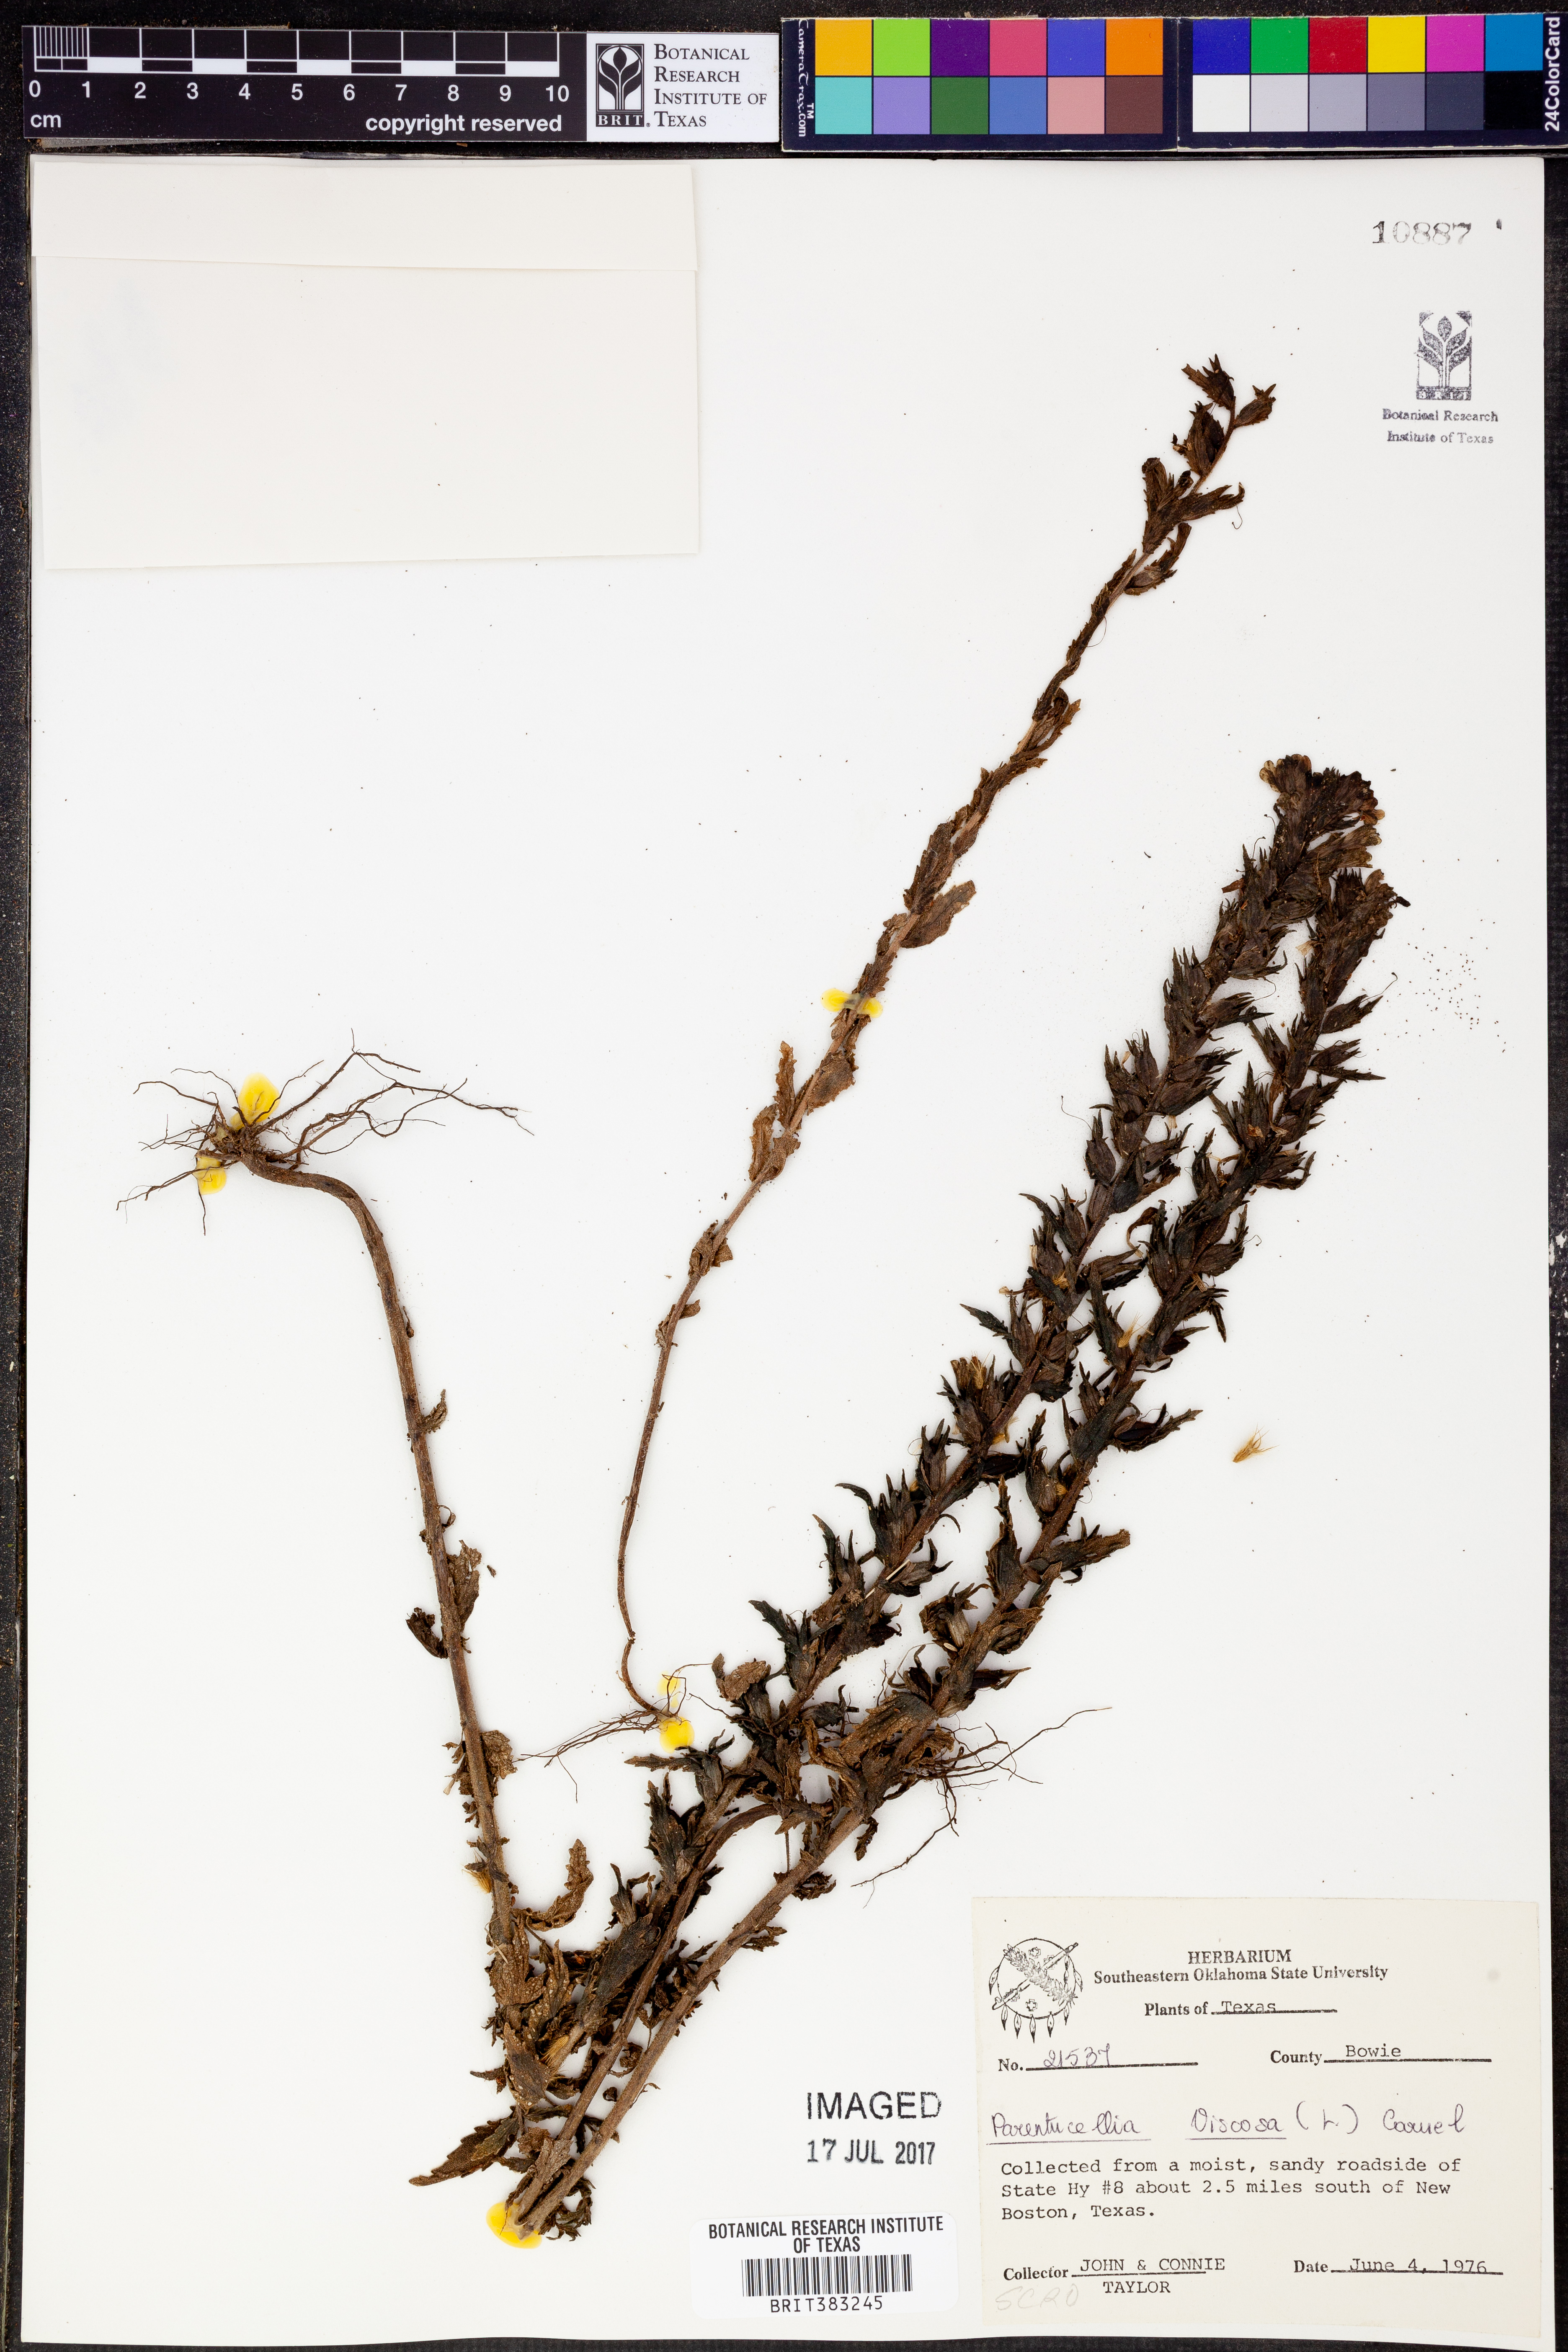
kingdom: Plantae
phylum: Tracheophyta
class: Magnoliopsida
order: Lamiales
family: Orobanchaceae
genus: Bellardia
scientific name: Bellardia viscosa
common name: Sticky parentucellia
